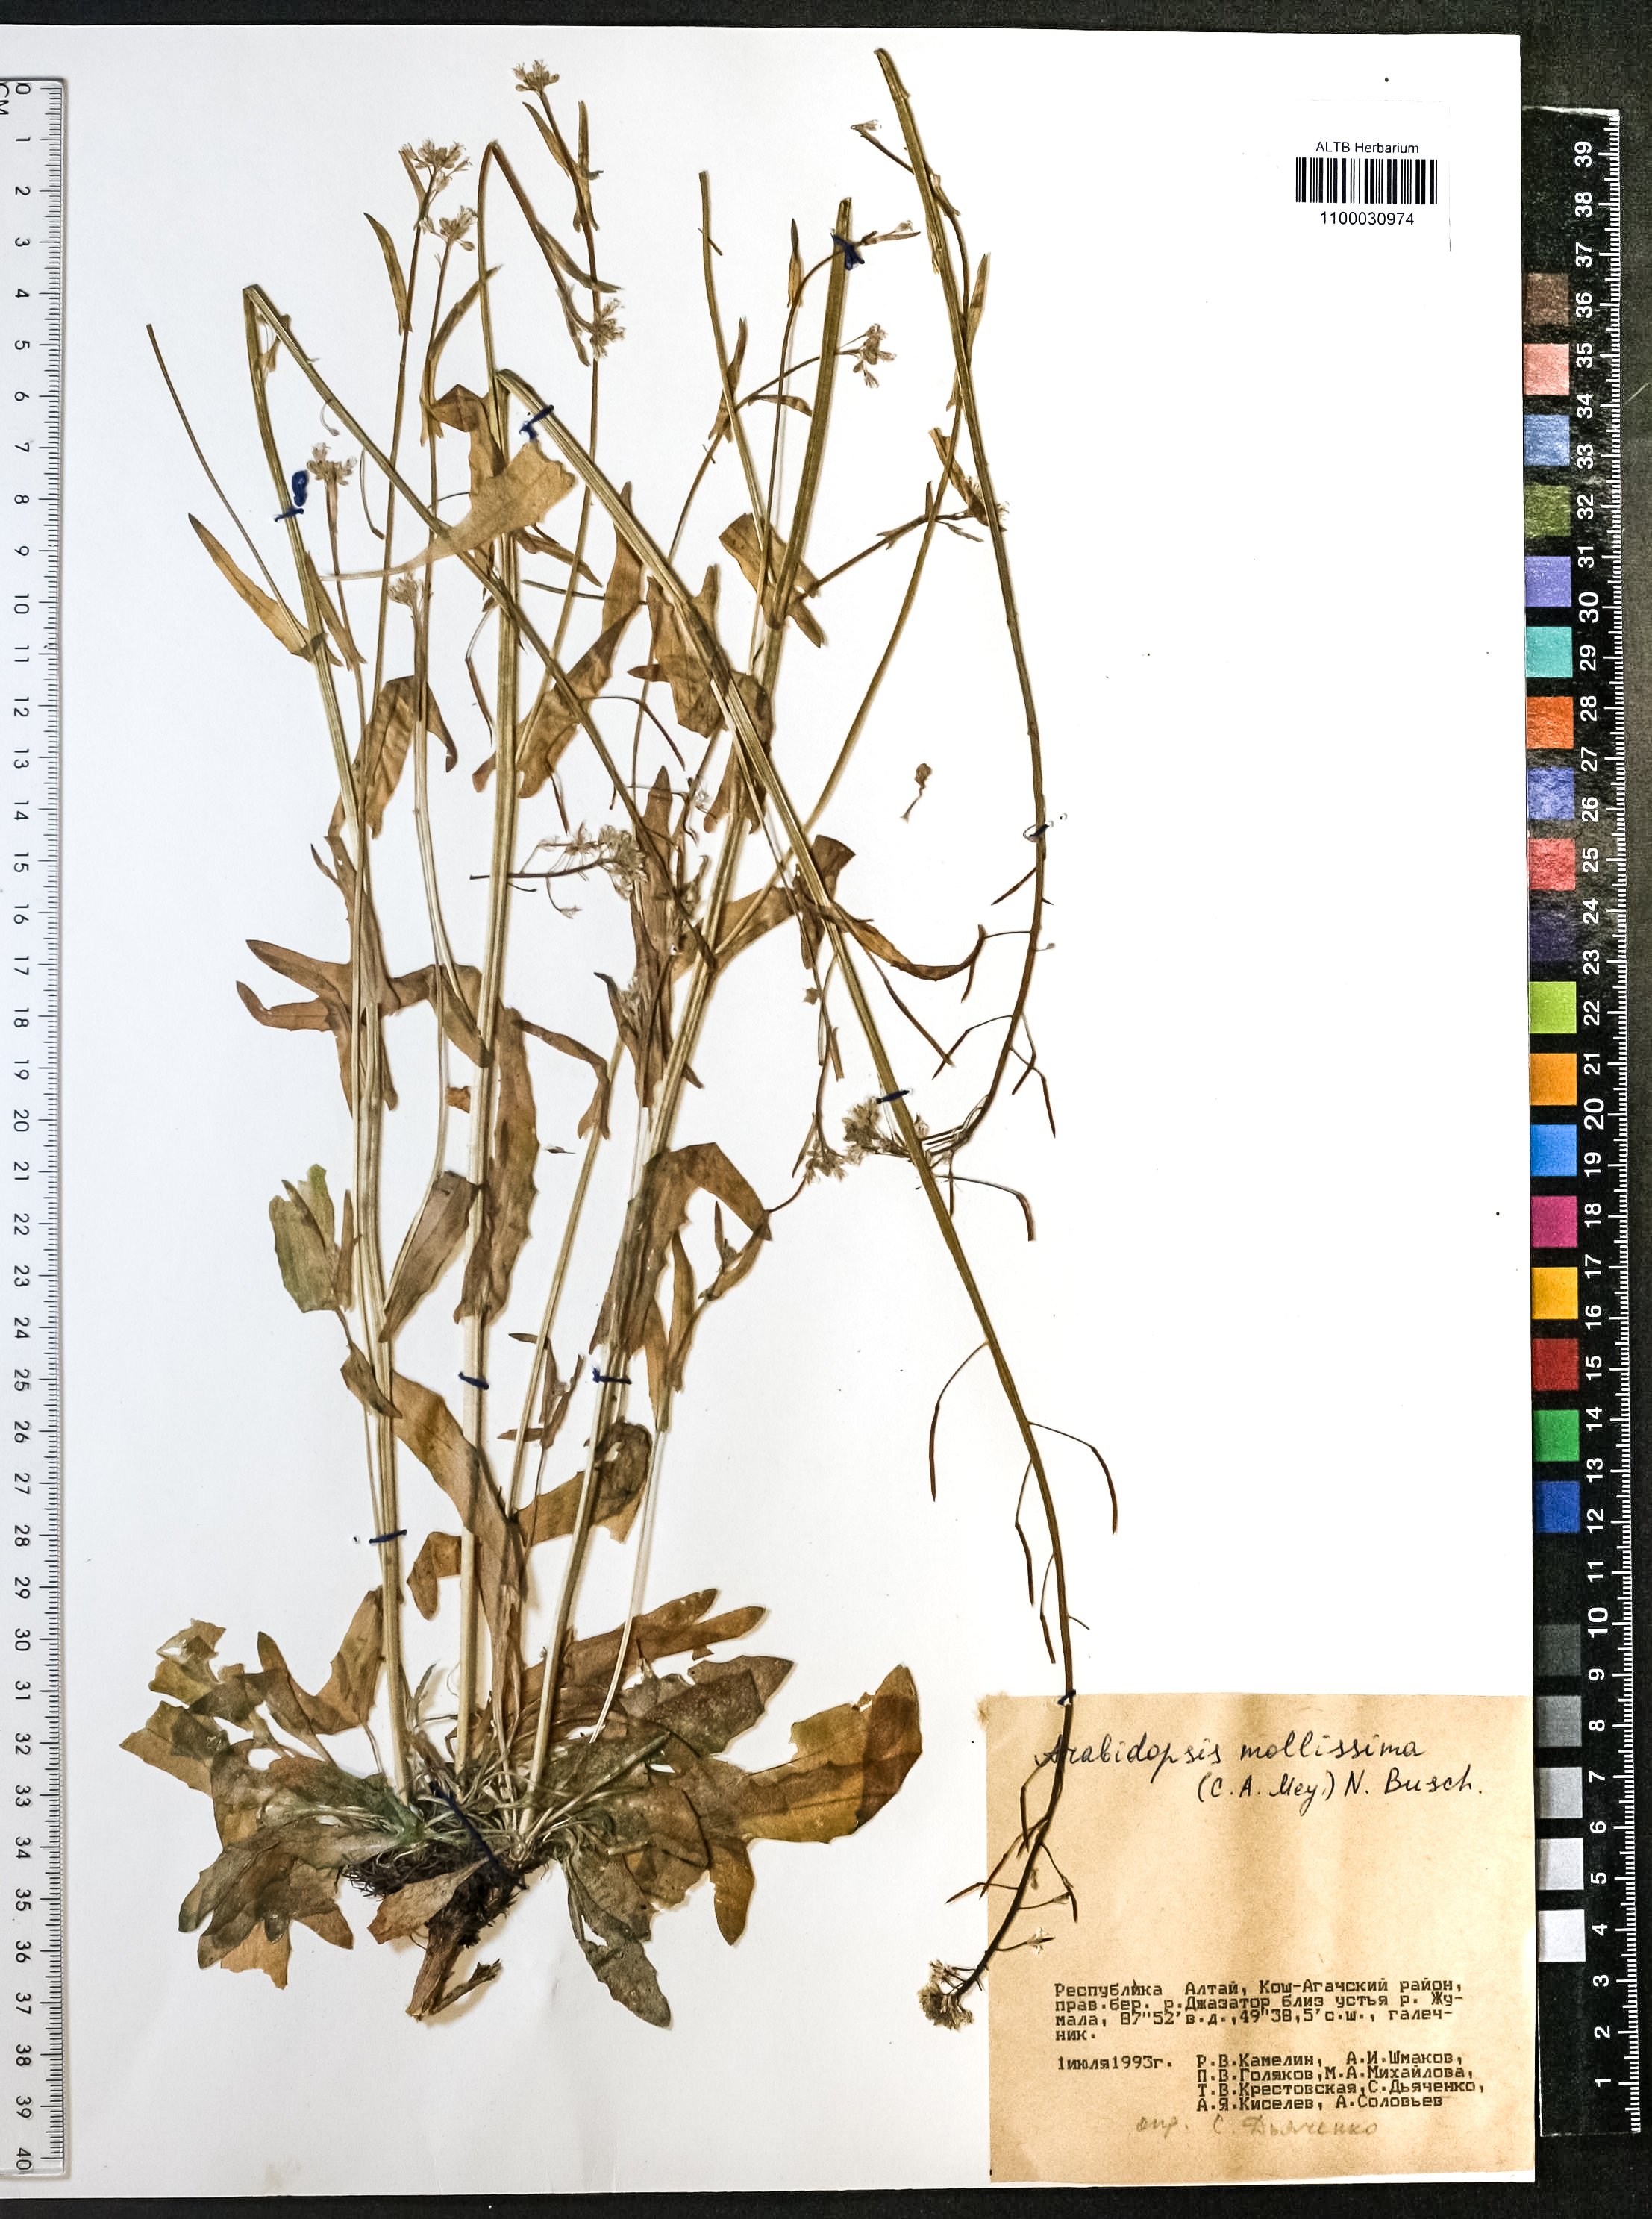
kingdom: Plantae
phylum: Tracheophyta
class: Magnoliopsida
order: Brassicales
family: Brassicaceae
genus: Crucihimalaya
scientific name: Crucihimalaya mollissima
